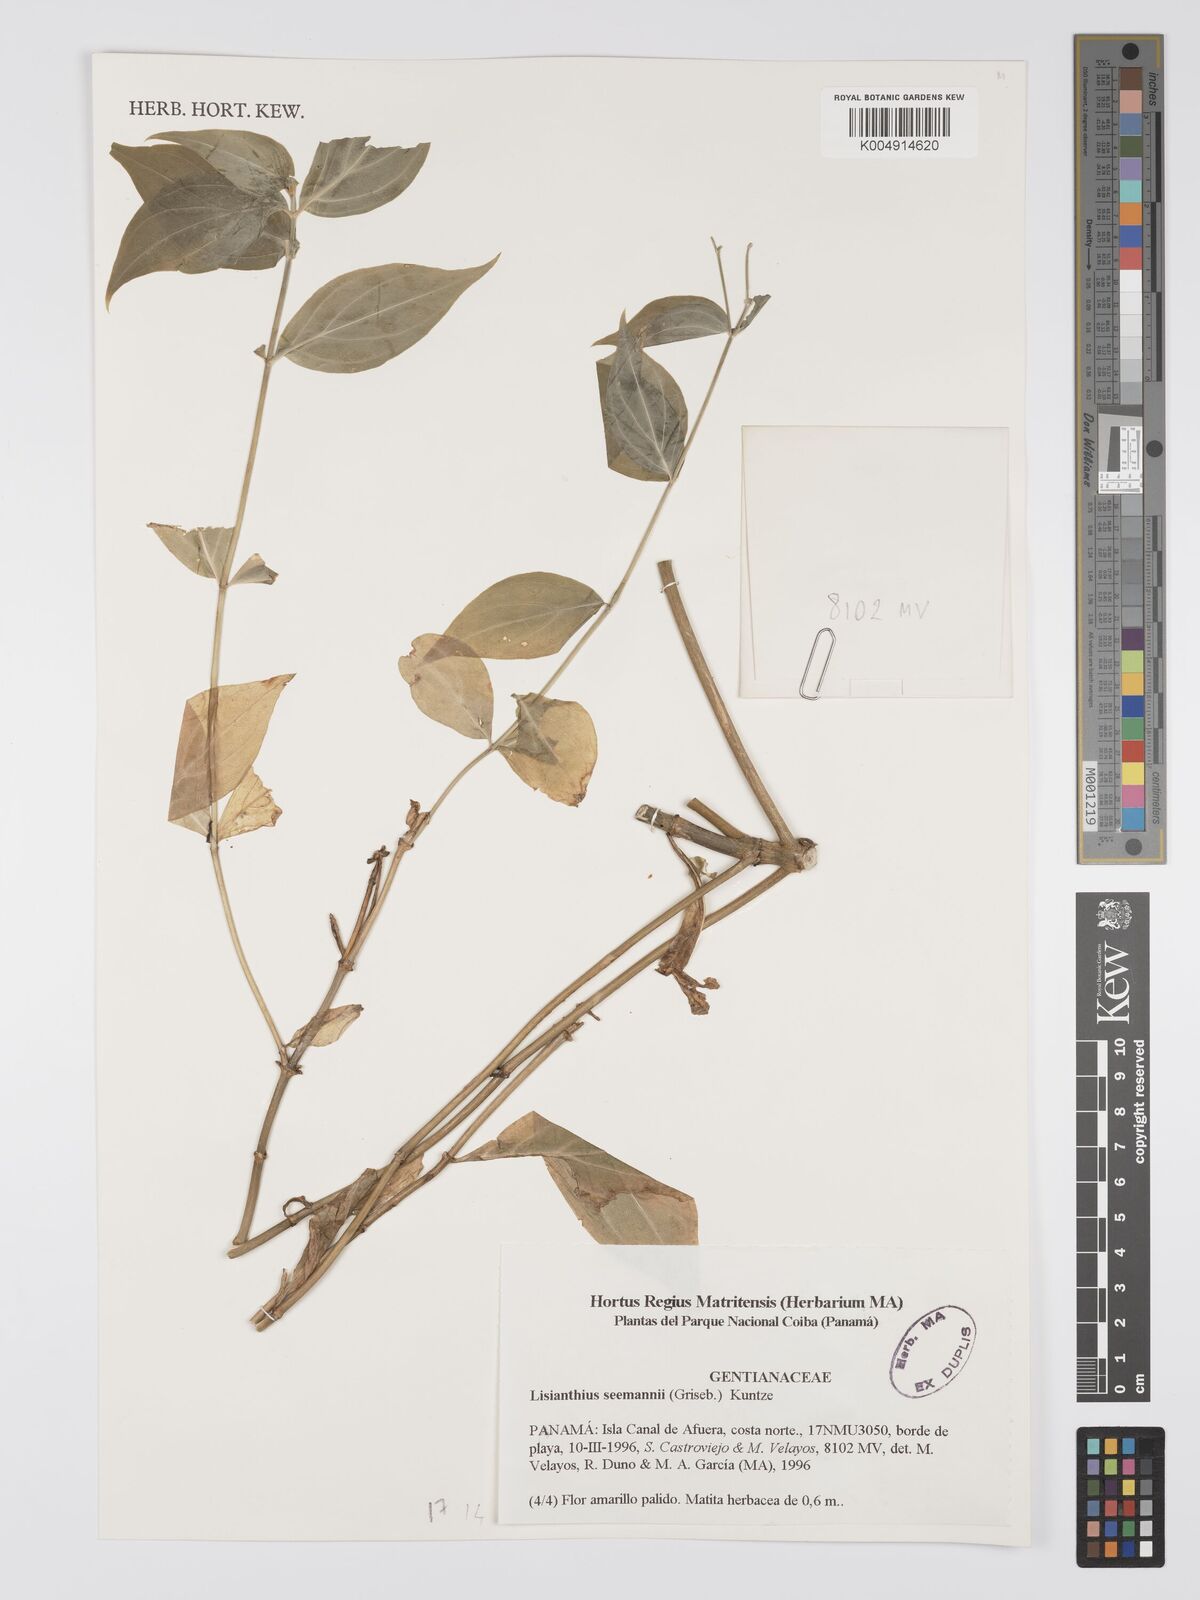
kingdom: Plantae
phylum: Tracheophyta
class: Magnoliopsida
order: Gentianales
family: Gentianaceae
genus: Lisianthus
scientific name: Lisianthus seemannii
